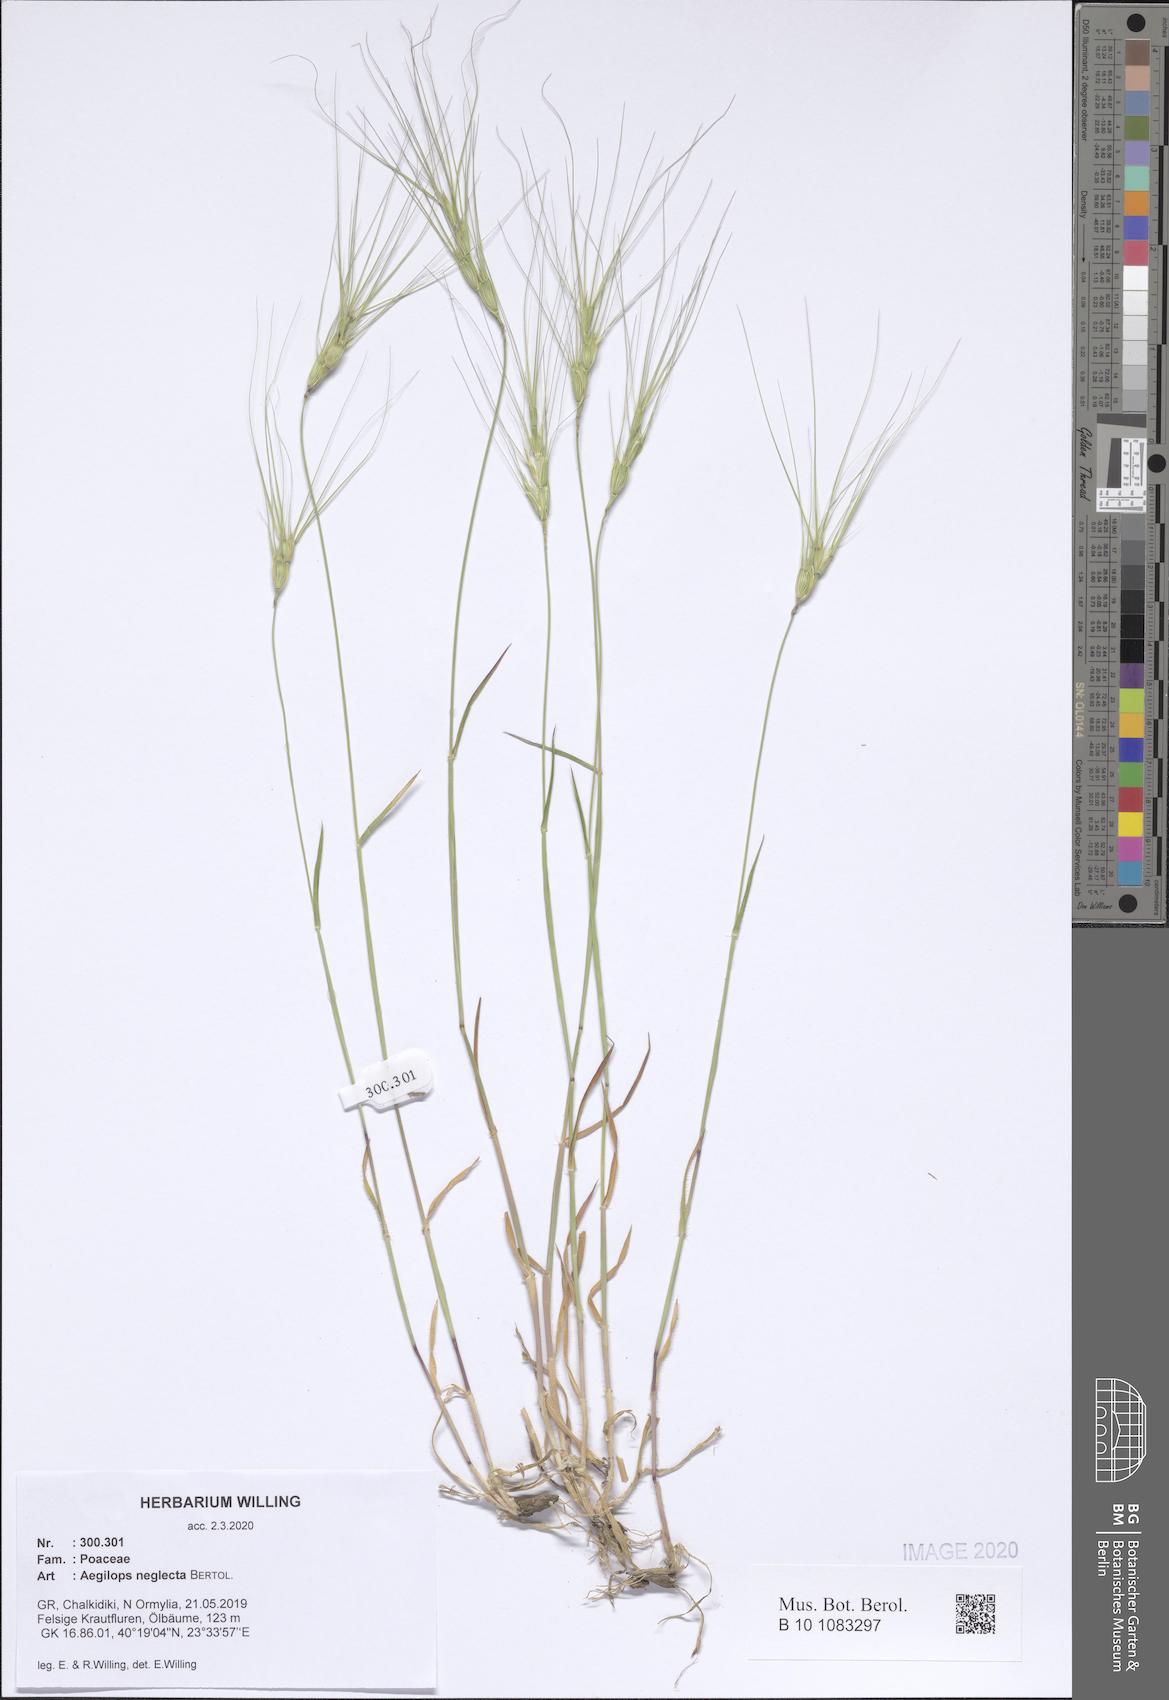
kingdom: Plantae
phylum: Tracheophyta
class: Liliopsida
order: Poales
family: Poaceae
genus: Aegilops
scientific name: Aegilops neglecta
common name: Three-awn goat grass
